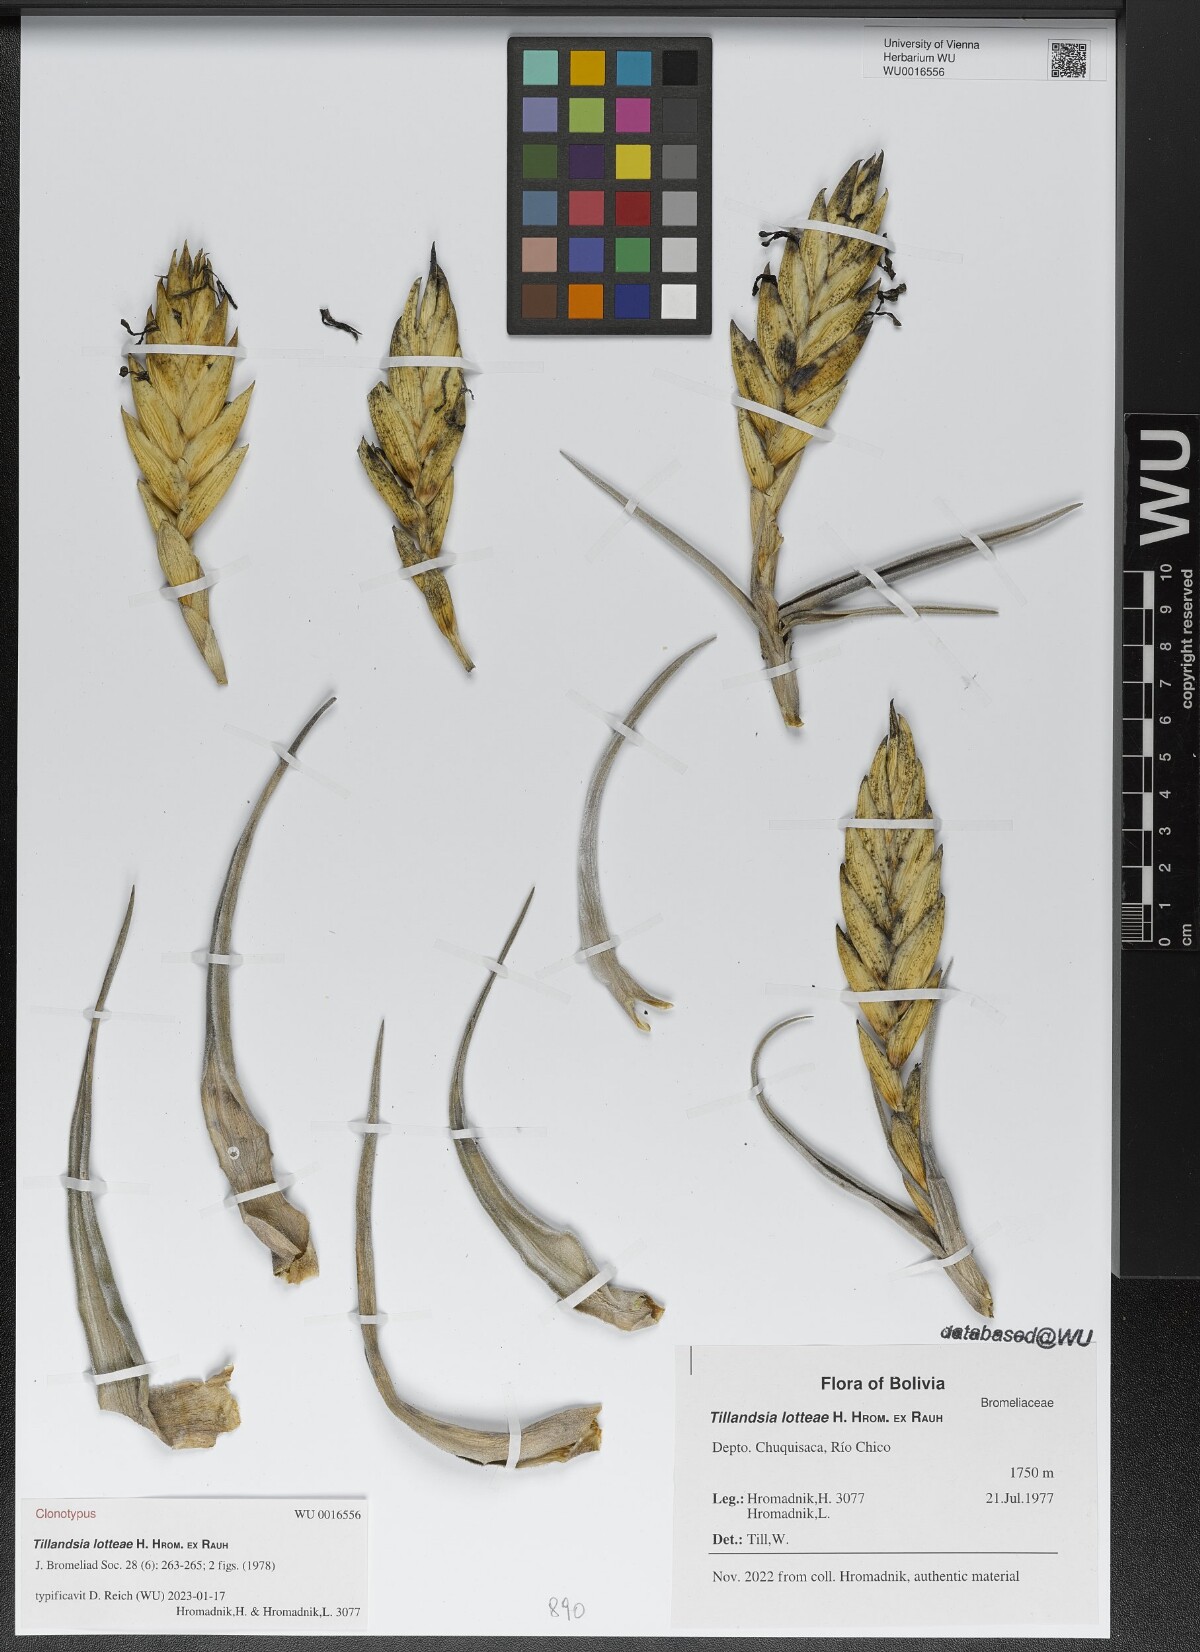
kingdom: Plantae
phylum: Tracheophyta
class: Liliopsida
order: Poales
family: Bromeliaceae
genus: Tillandsia
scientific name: Tillandsia lotteae
